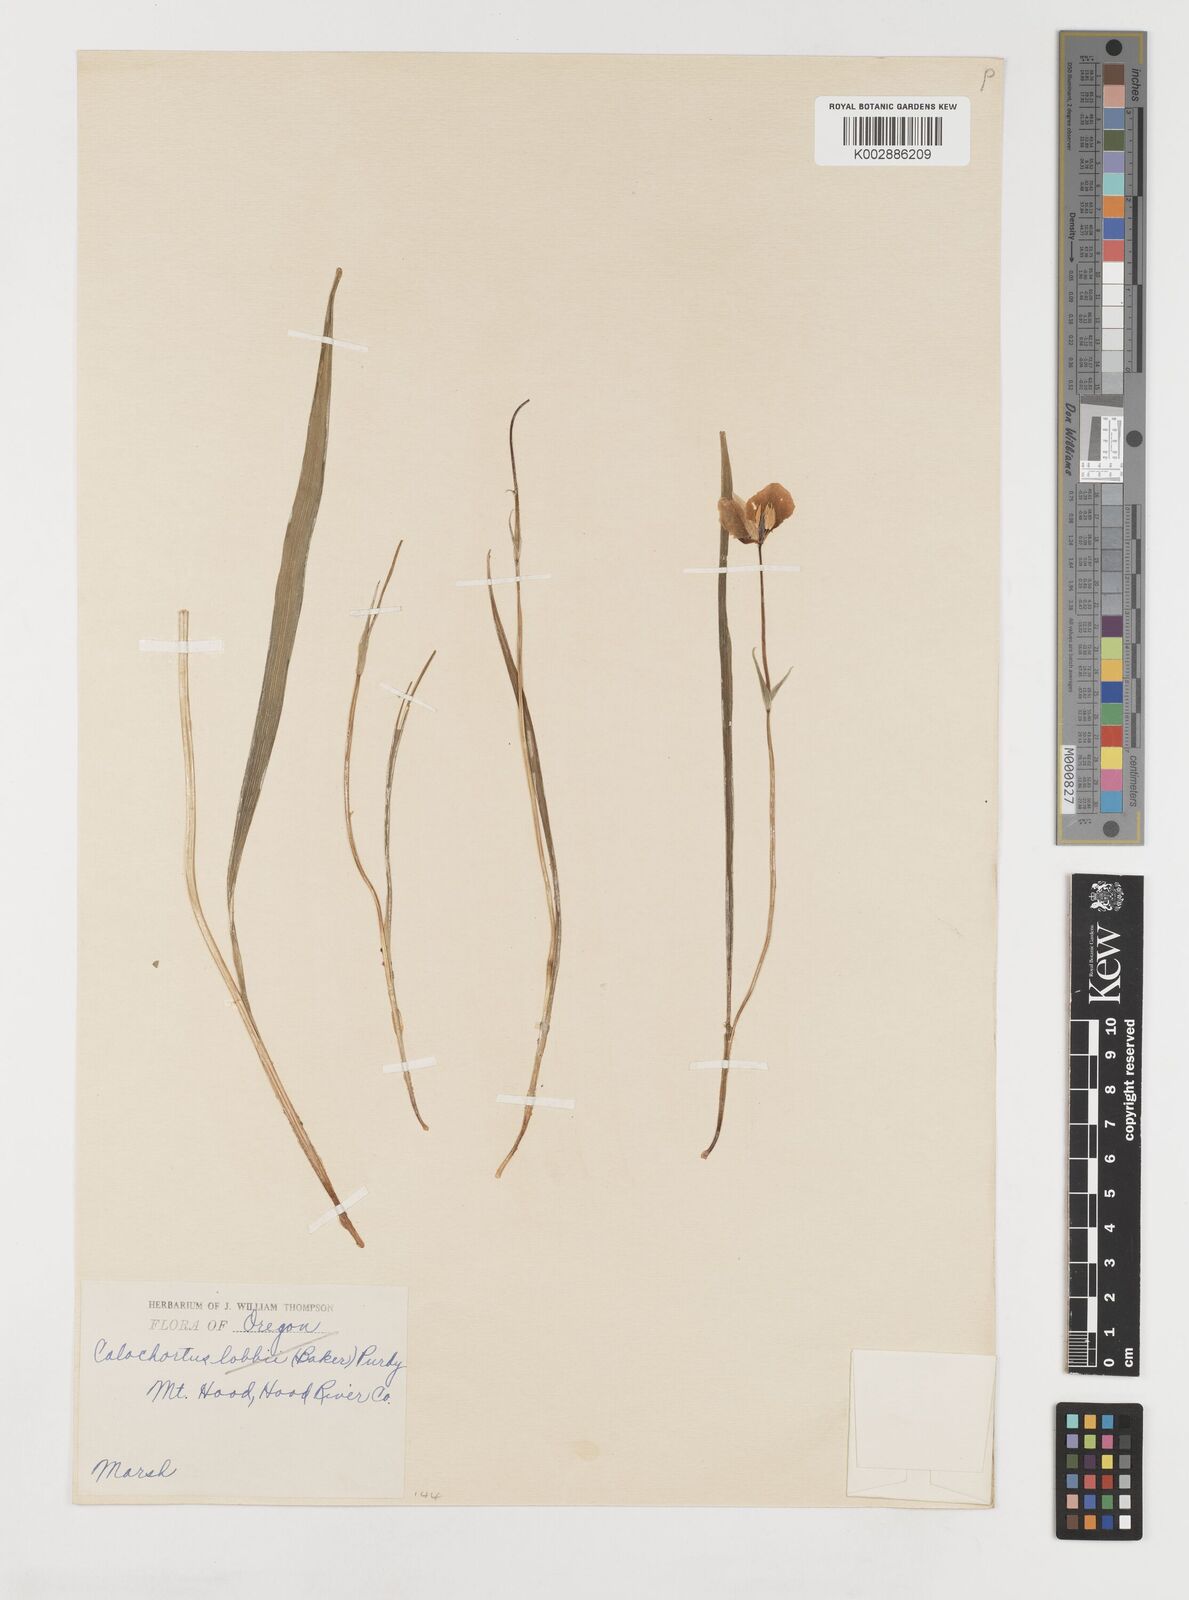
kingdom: Plantae
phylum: Tracheophyta
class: Liliopsida
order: Liliales
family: Liliaceae
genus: Calochortus
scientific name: Calochortus subalpinus
